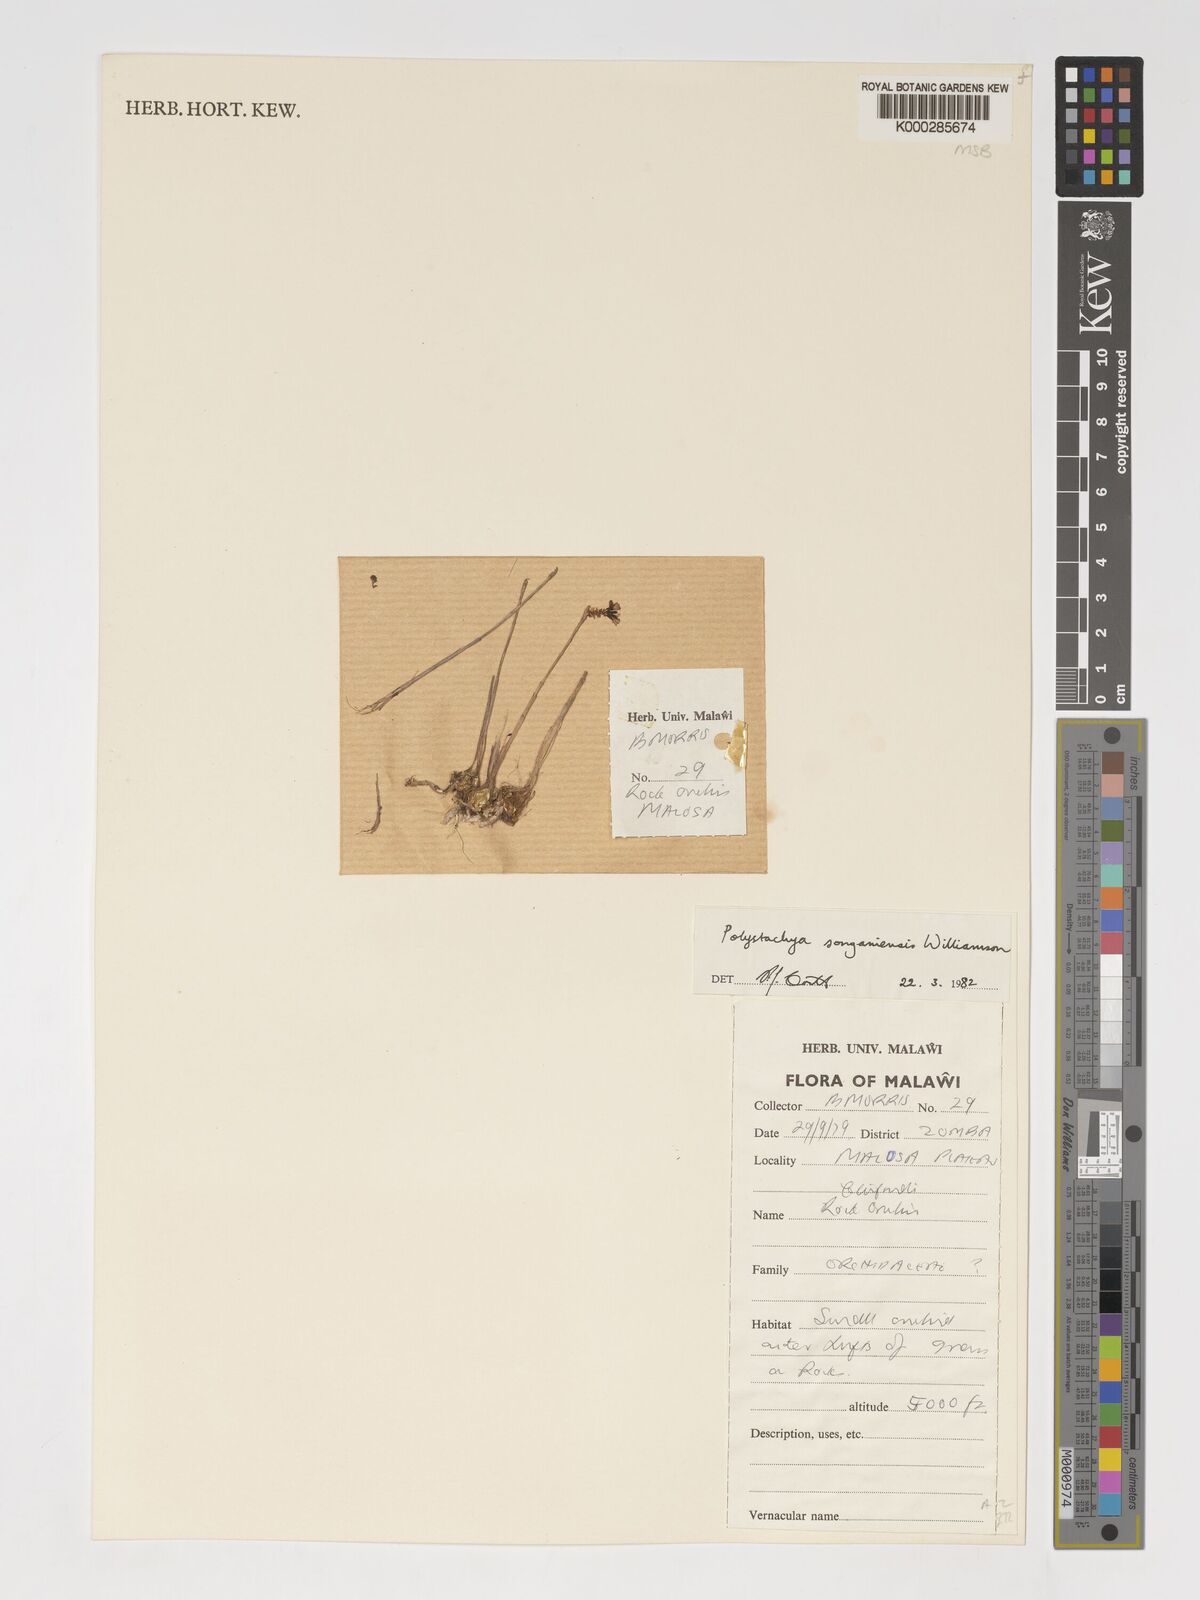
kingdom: Plantae
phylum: Tracheophyta
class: Liliopsida
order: Asparagales
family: Orchidaceae
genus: Polystachya
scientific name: Polystachya songaniensis
